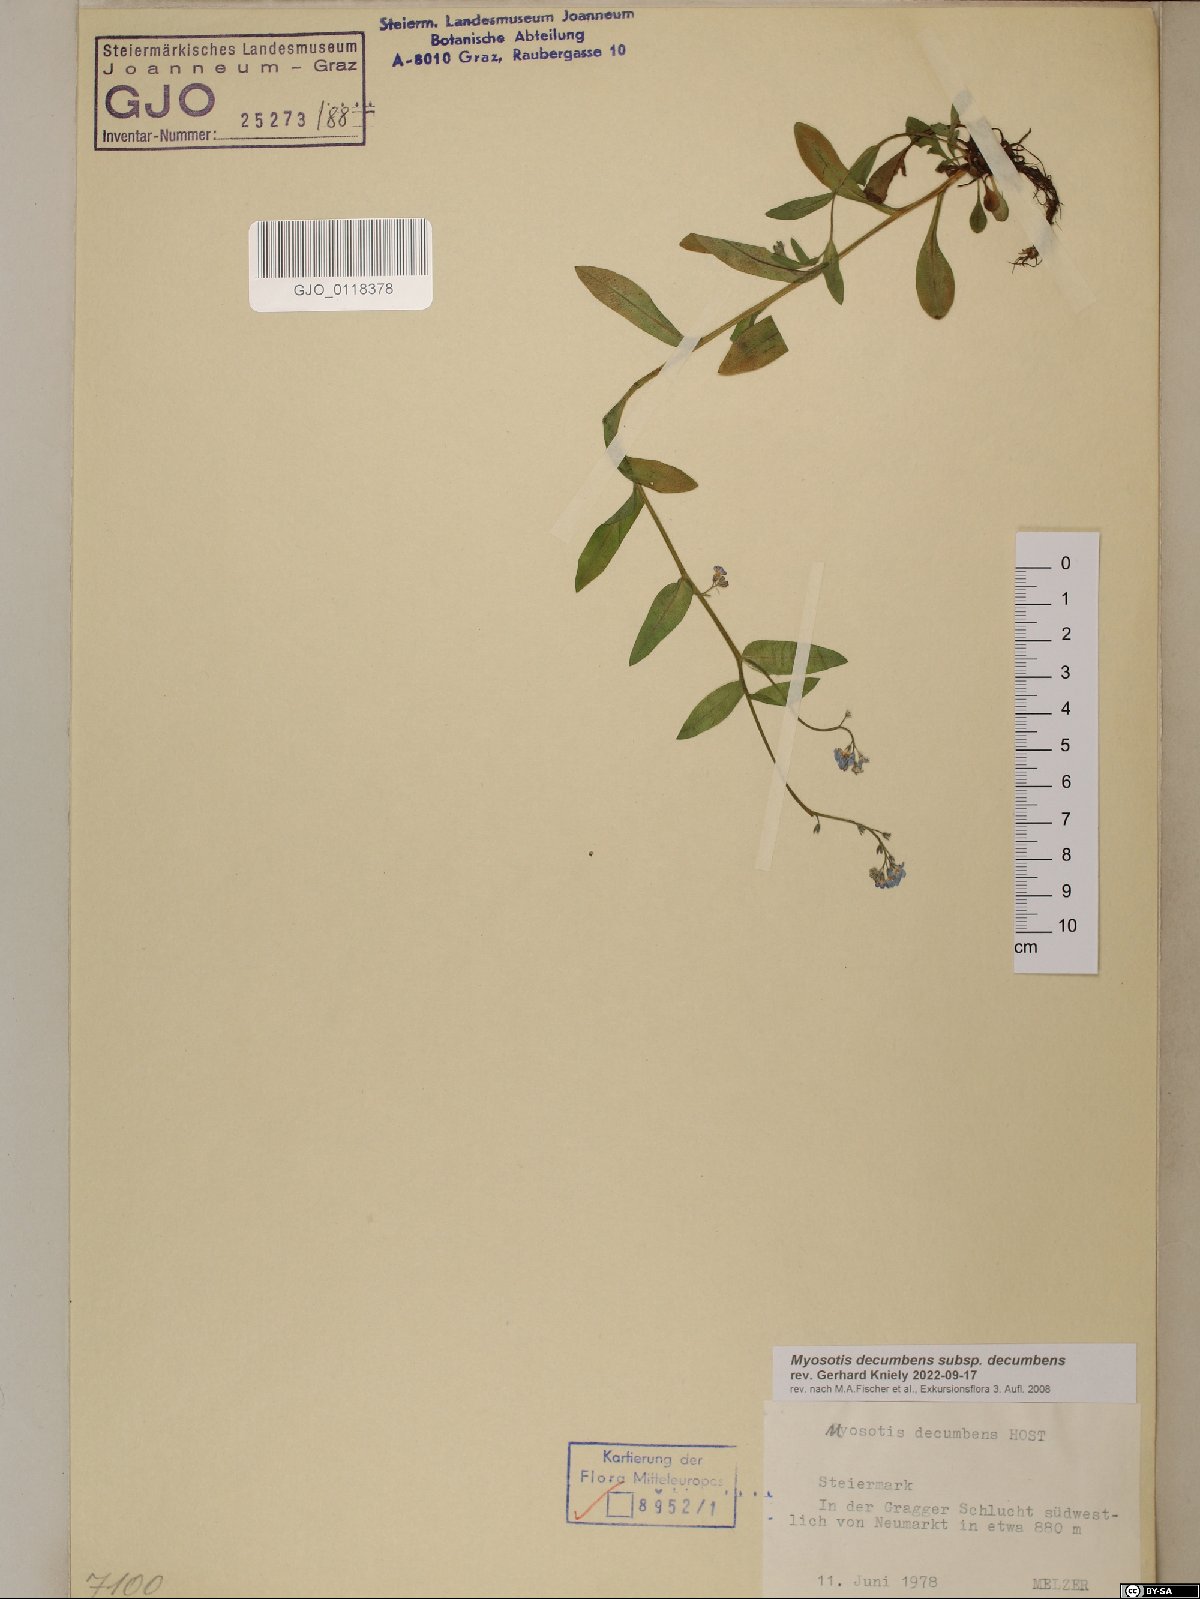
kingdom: Plantae
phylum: Tracheophyta
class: Magnoliopsida
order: Boraginales
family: Boraginaceae
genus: Myosotis
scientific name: Myosotis decumbens
